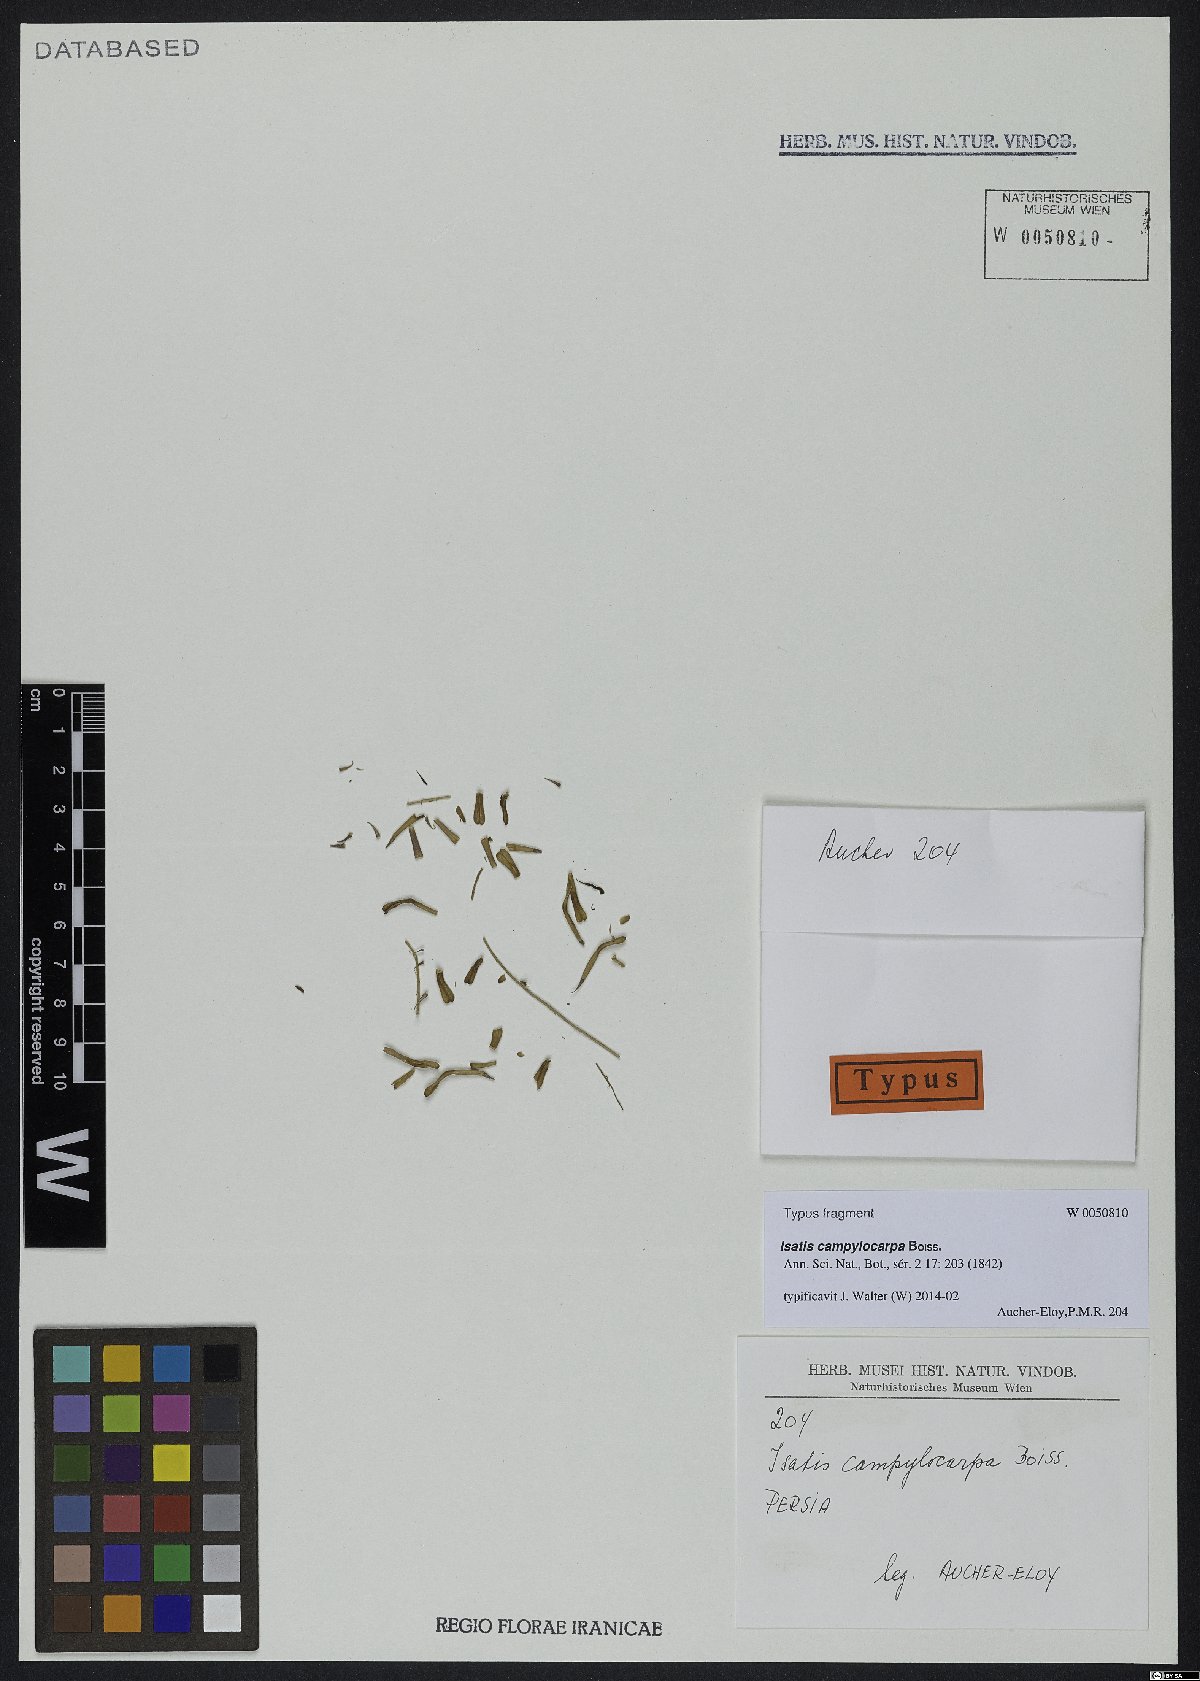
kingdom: Plantae
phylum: Tracheophyta
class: Magnoliopsida
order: Brassicales
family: Brassicaceae
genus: Isatis
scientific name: Isatis campylocarpa
